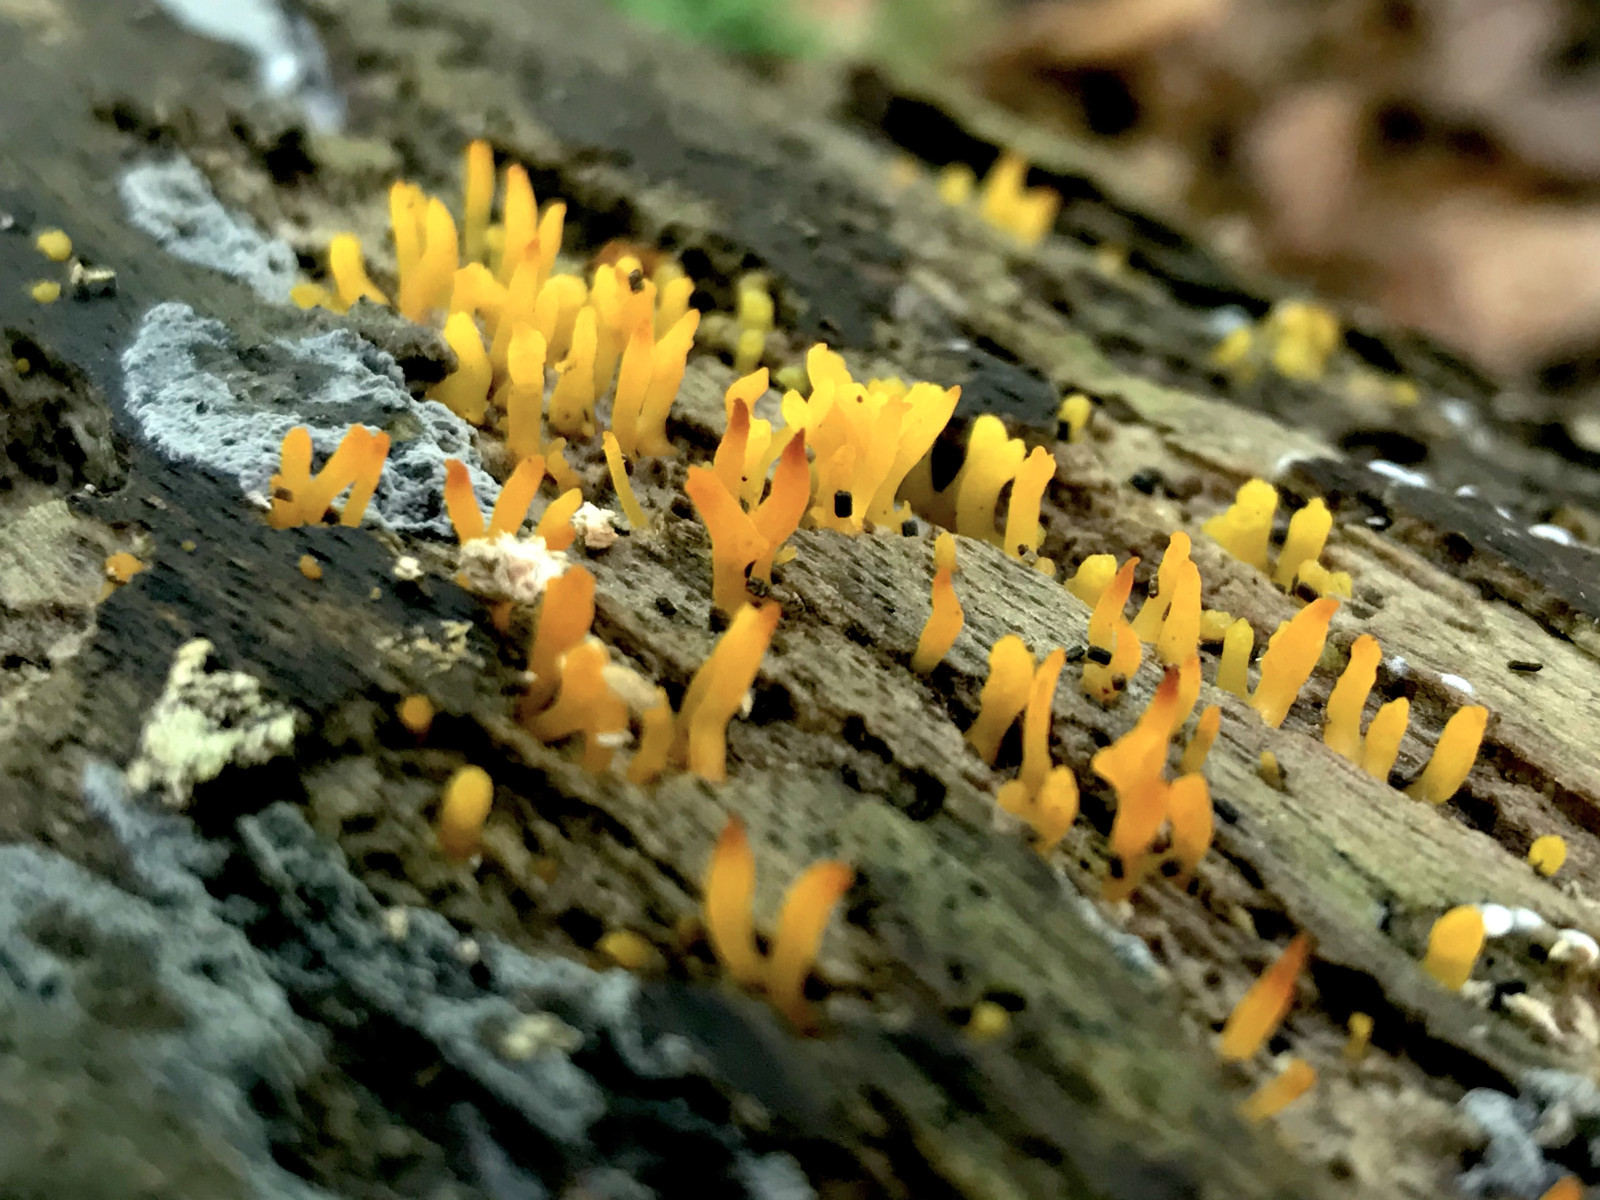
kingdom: Fungi
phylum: Basidiomycota
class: Dacrymycetes
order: Dacrymycetales
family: Dacrymycetaceae
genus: Calocera
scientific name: Calocera cornea
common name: liden guldgaffel
